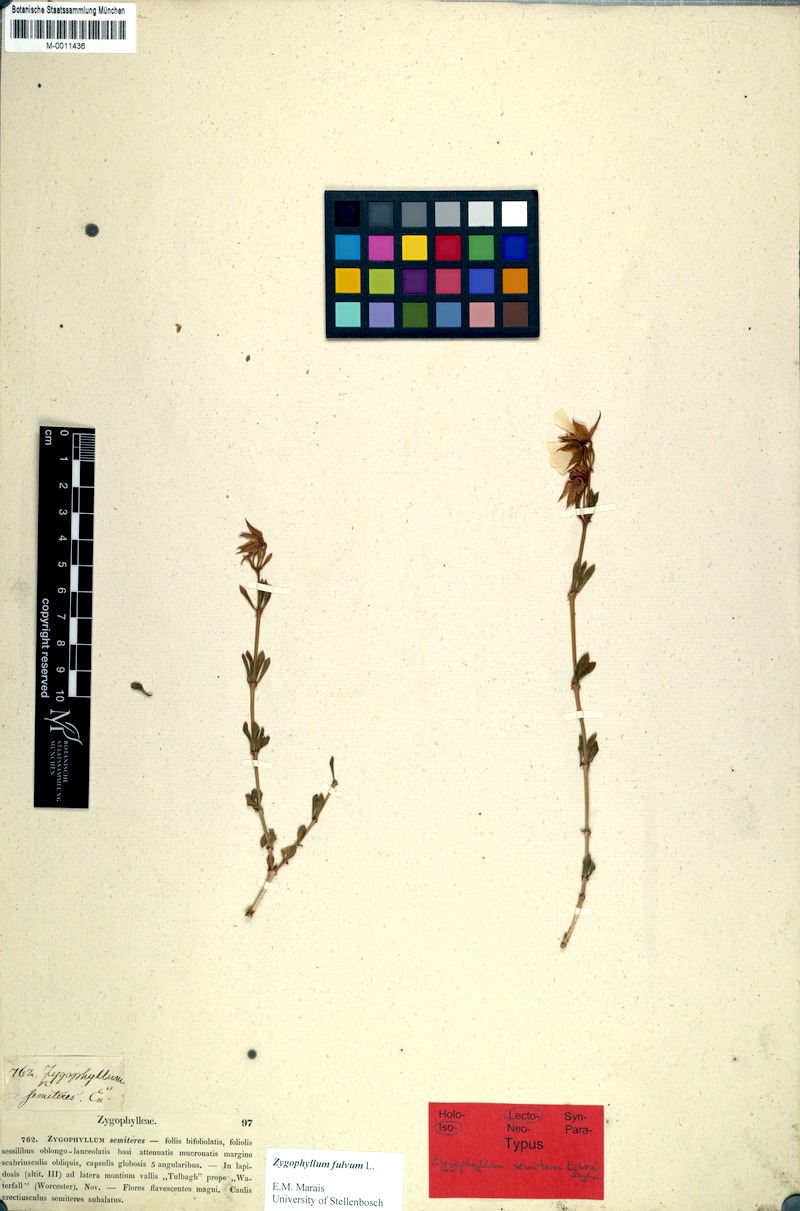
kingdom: Plantae
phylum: Tracheophyta
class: Magnoliopsida
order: Zygophyllales
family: Zygophyllaceae
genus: Roepera
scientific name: Roepera fulva
